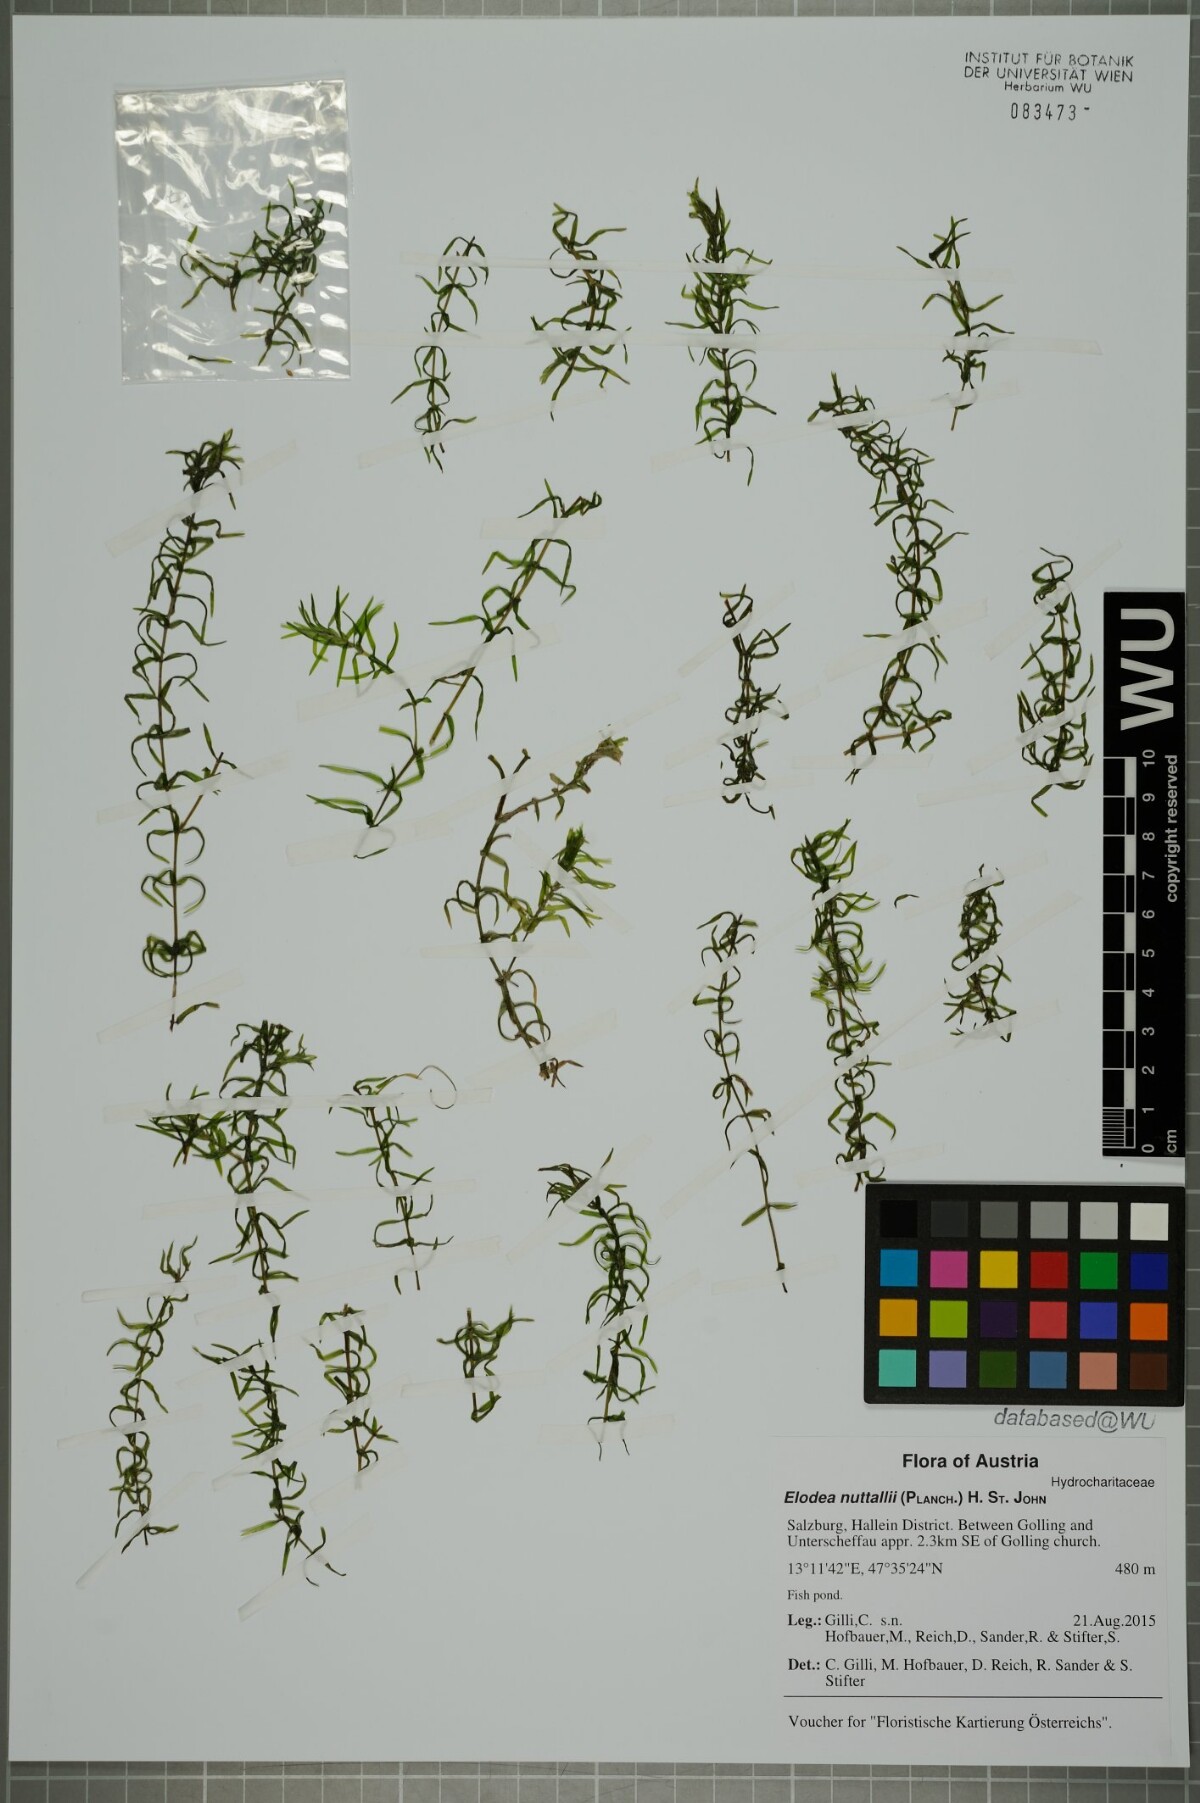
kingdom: Plantae
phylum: Tracheophyta
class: Liliopsida
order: Alismatales
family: Hydrocharitaceae
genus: Elodea
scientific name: Elodea nuttallii
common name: Nuttall's waterweed
